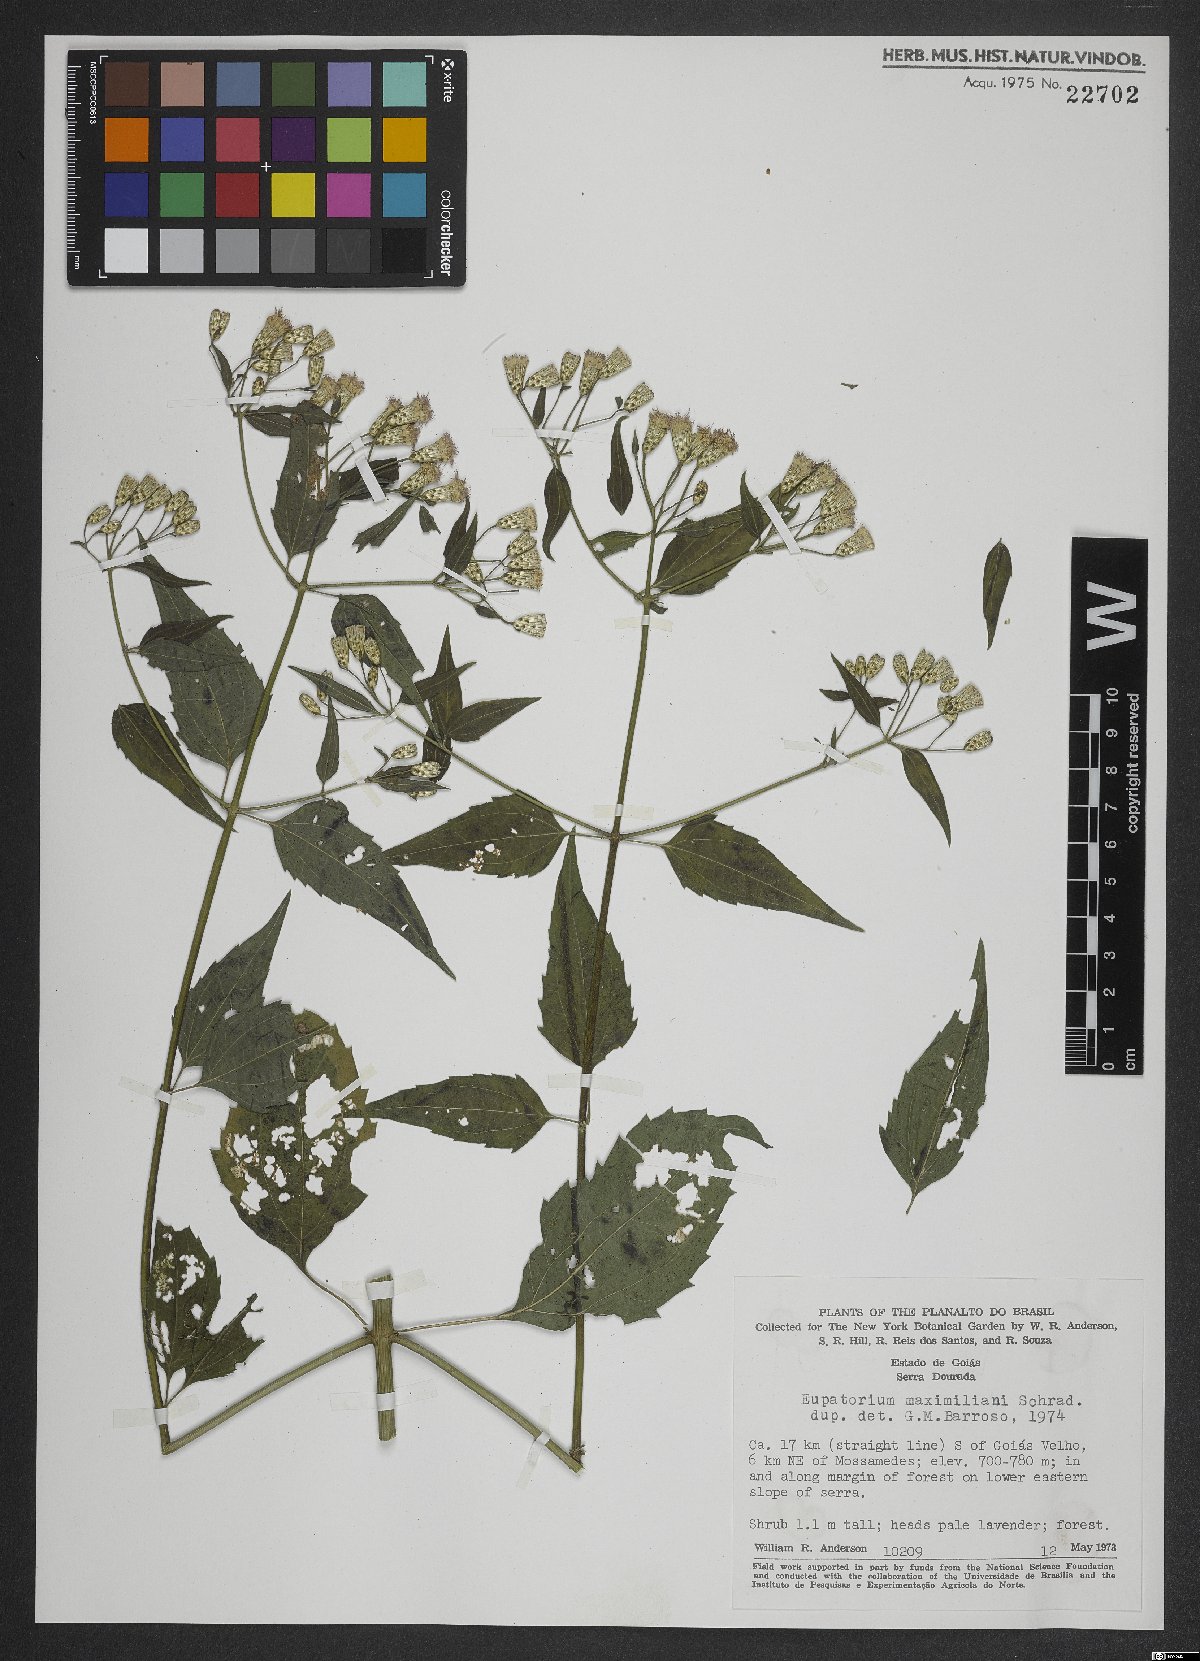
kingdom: Plantae
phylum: Tracheophyta
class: Magnoliopsida
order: Asterales
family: Asteraceae
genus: Chromolaena
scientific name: Chromolaena maximiliani
